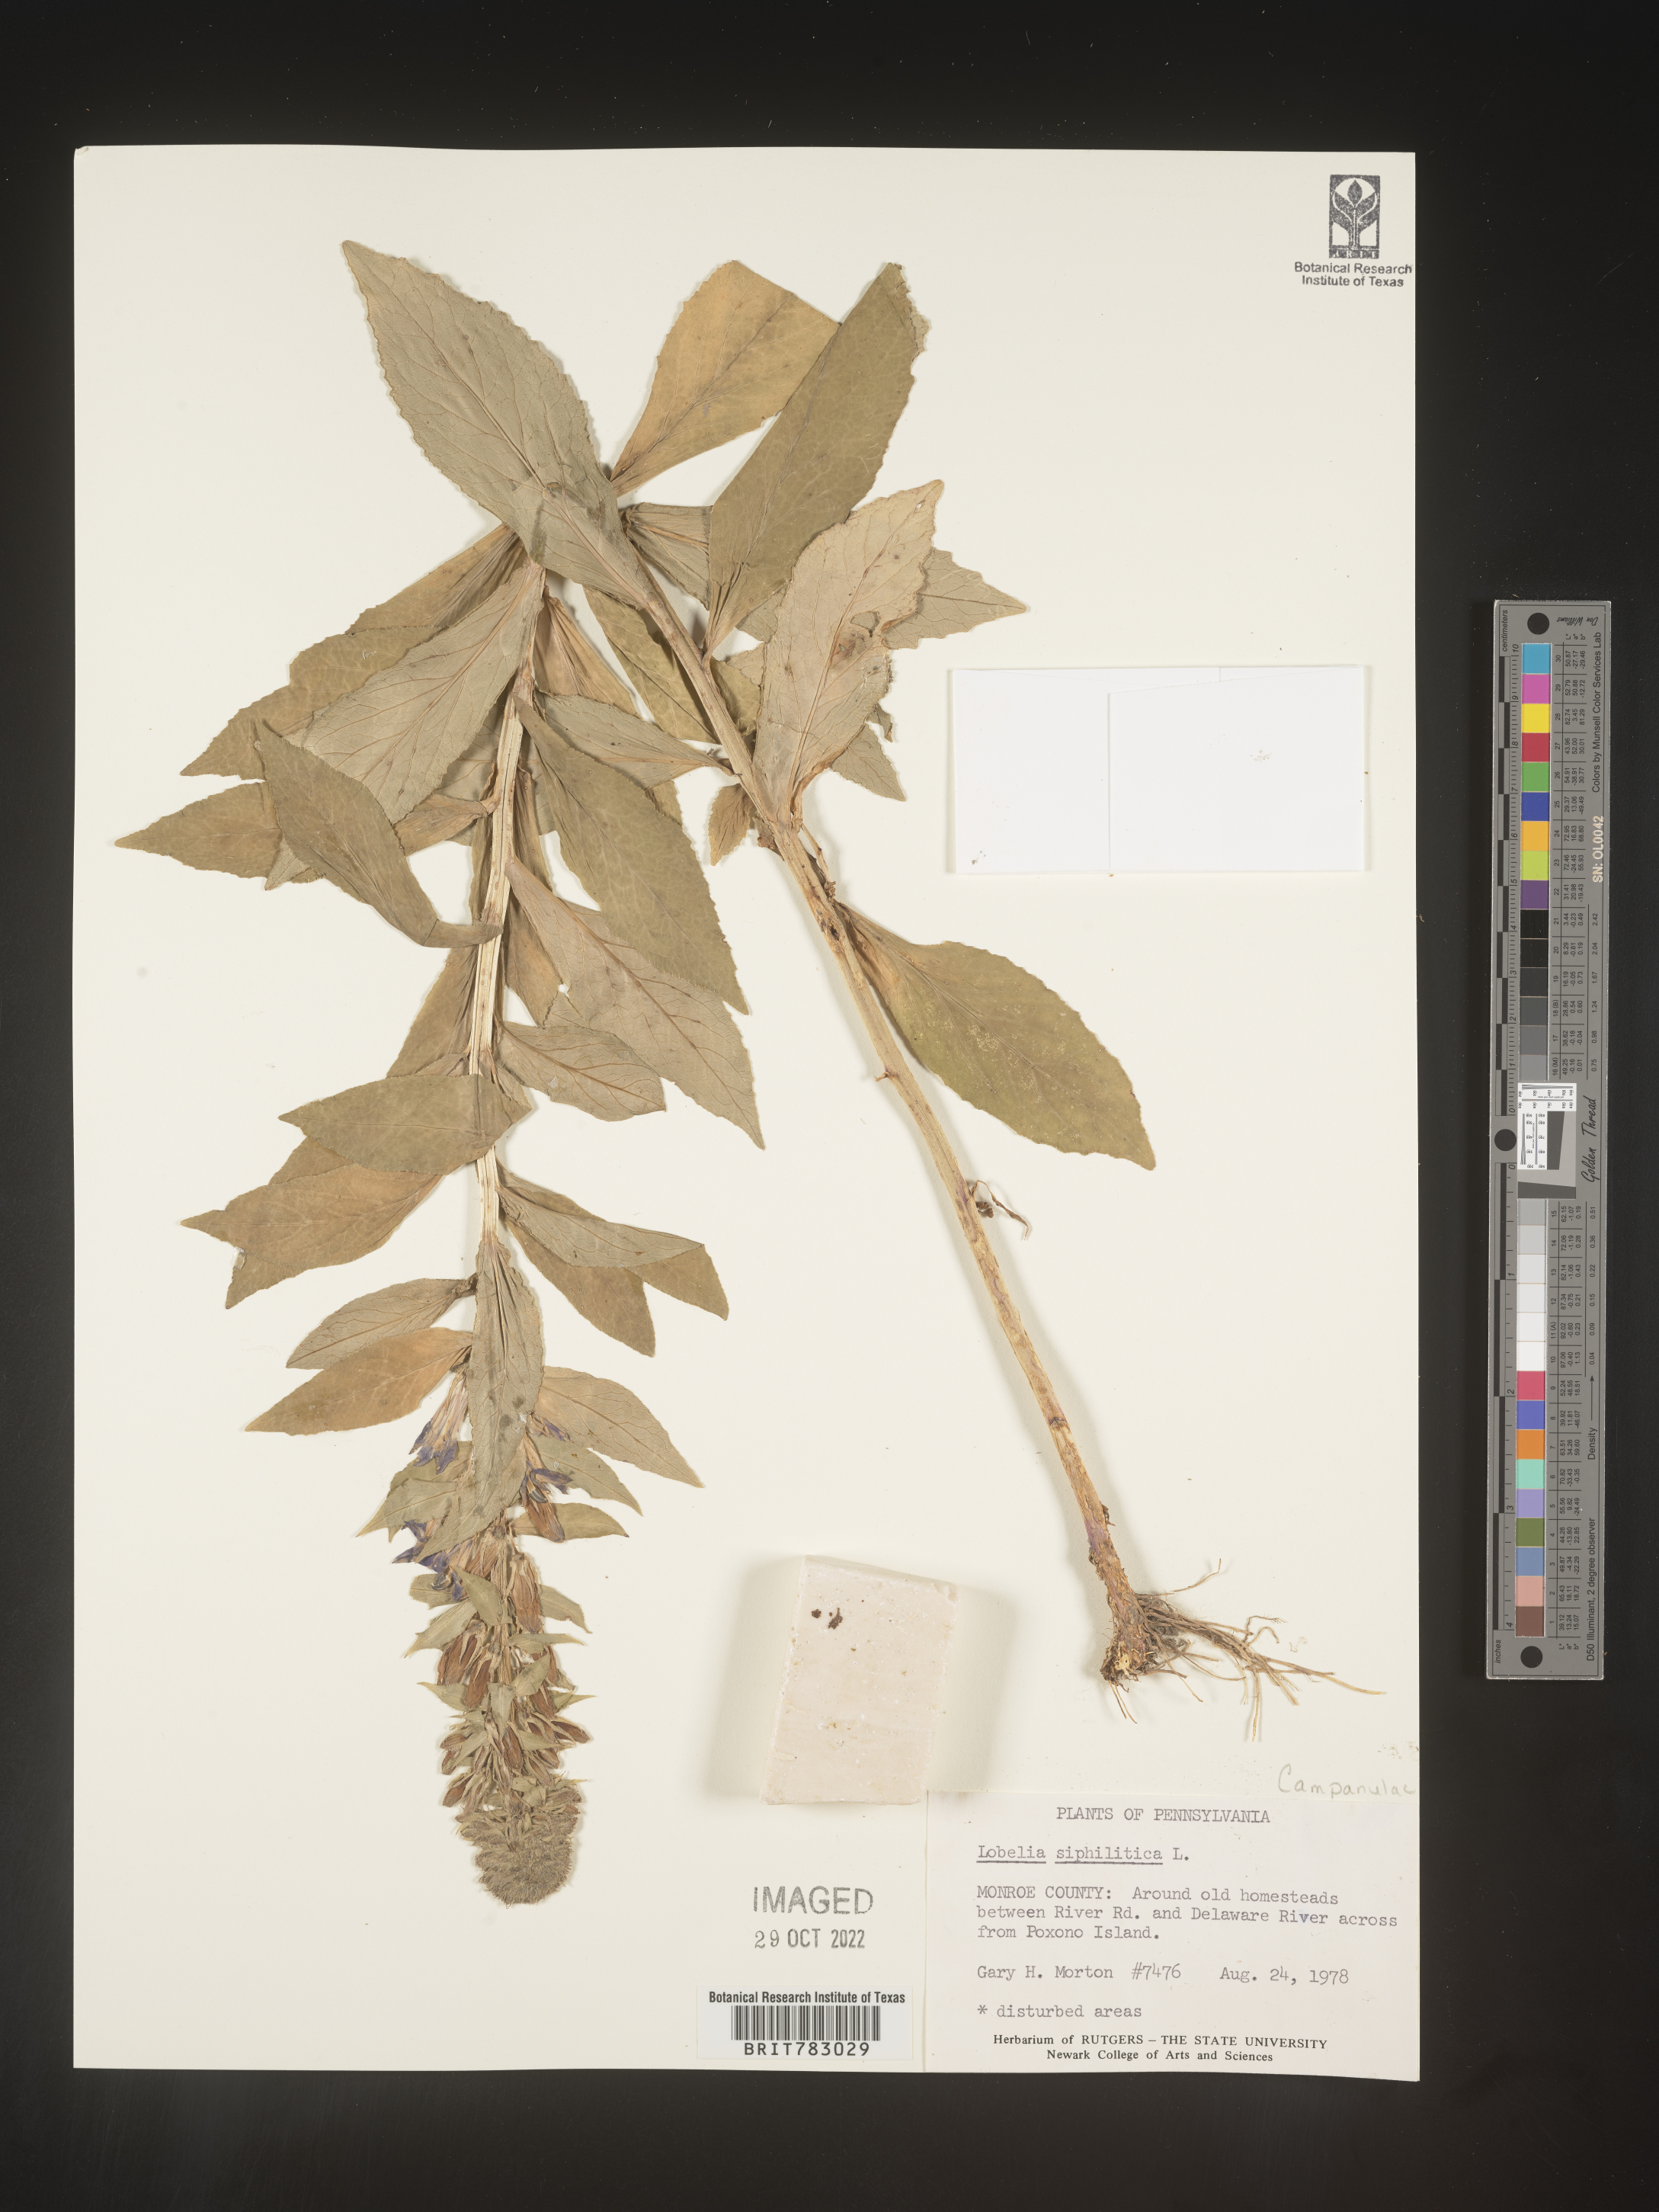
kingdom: Plantae
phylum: Tracheophyta
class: Magnoliopsida
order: Asterales
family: Campanulaceae
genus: Lobelia
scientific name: Lobelia siphilitica
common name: Great lobelia
